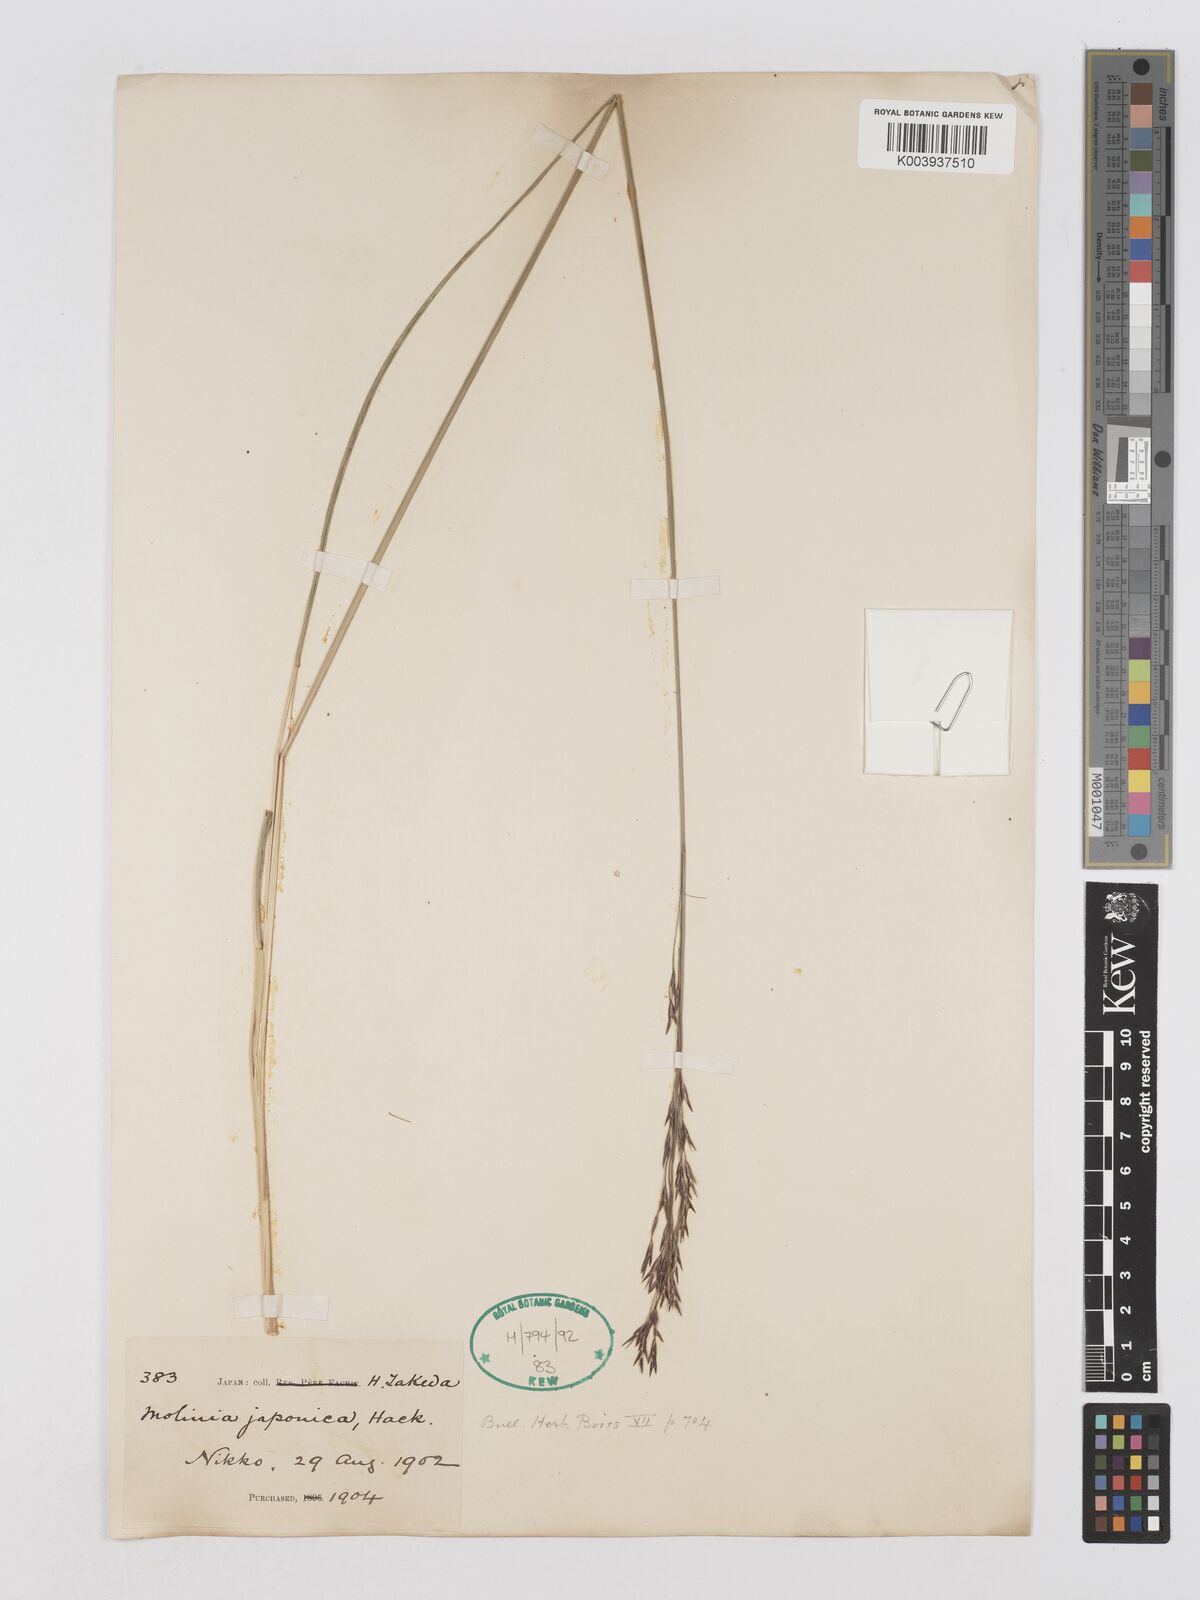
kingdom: Plantae
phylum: Tracheophyta
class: Liliopsida
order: Poales
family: Poaceae
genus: Moliniopsis
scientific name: Moliniopsis japonica
